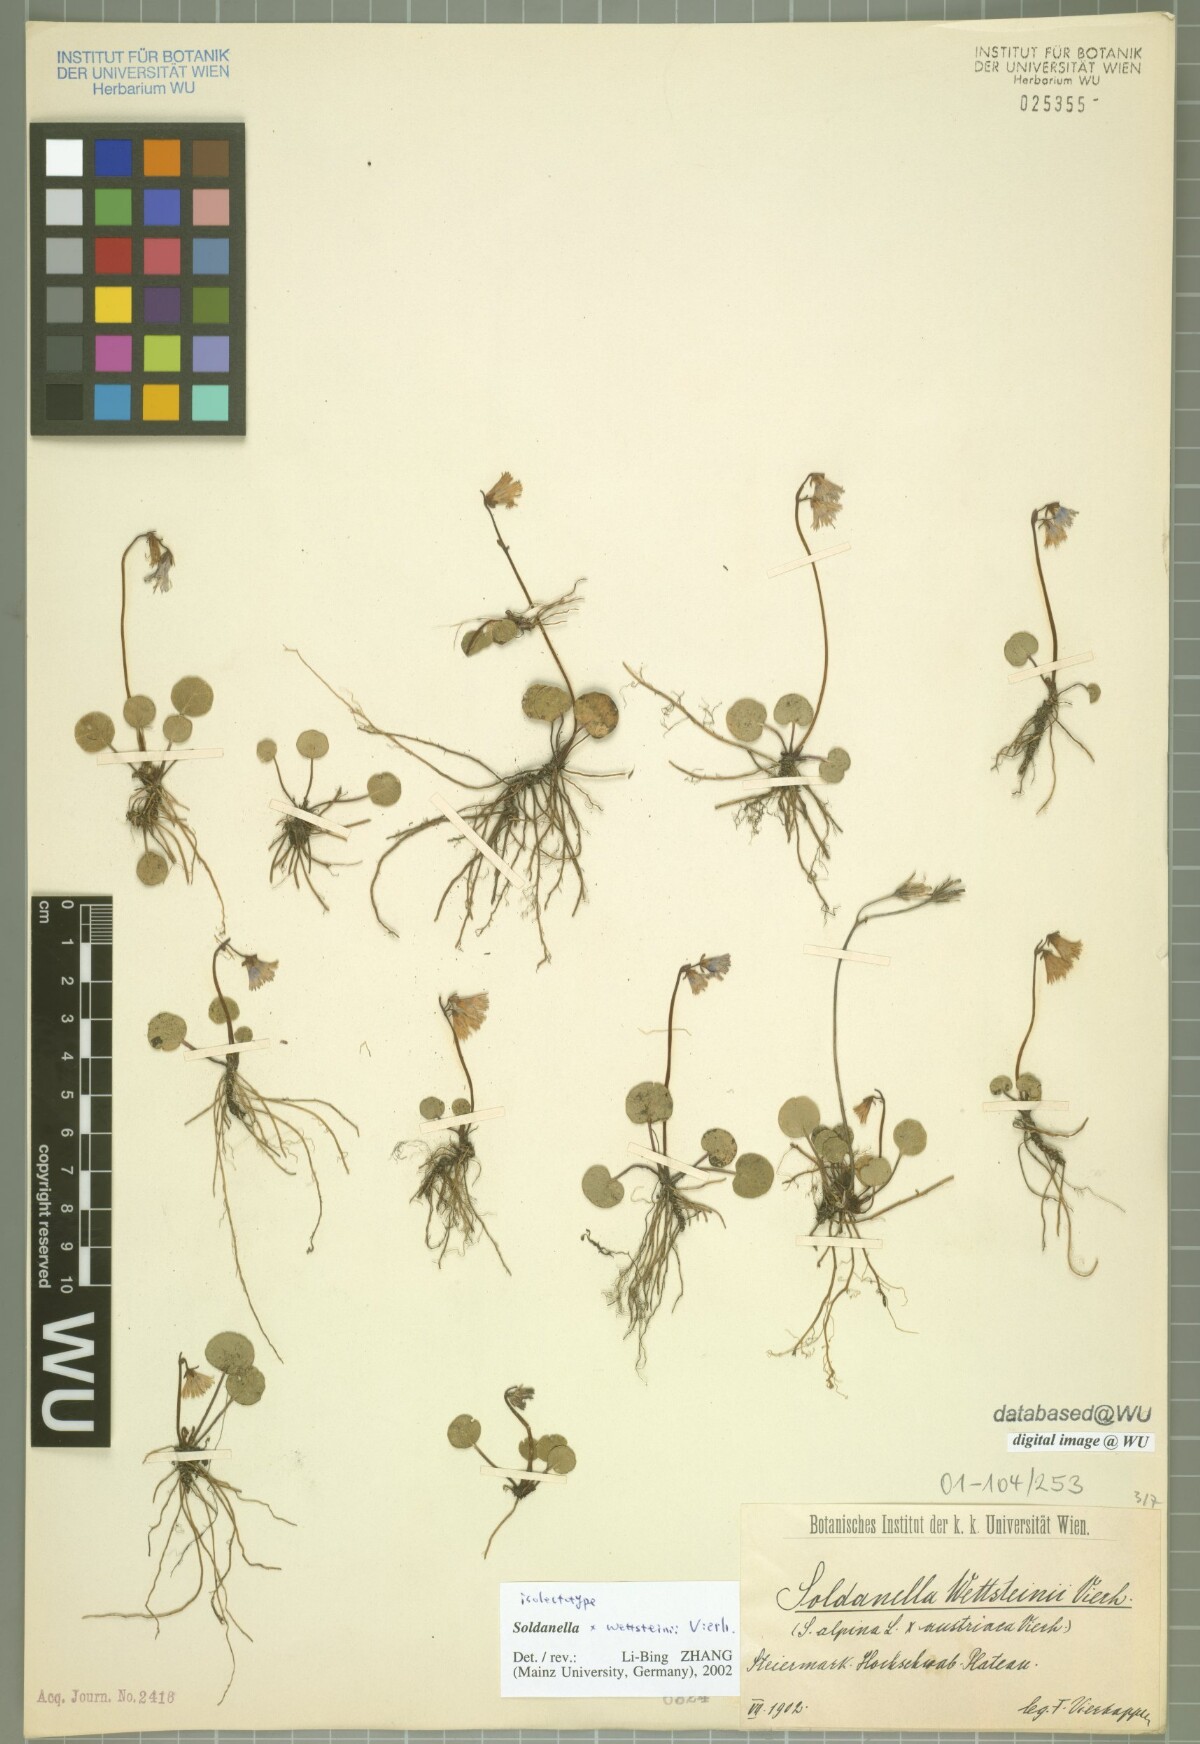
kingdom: Plantae
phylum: Tracheophyta
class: Magnoliopsida
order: Ericales
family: Primulaceae
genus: Soldanella
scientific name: Soldanella wettsteinii
